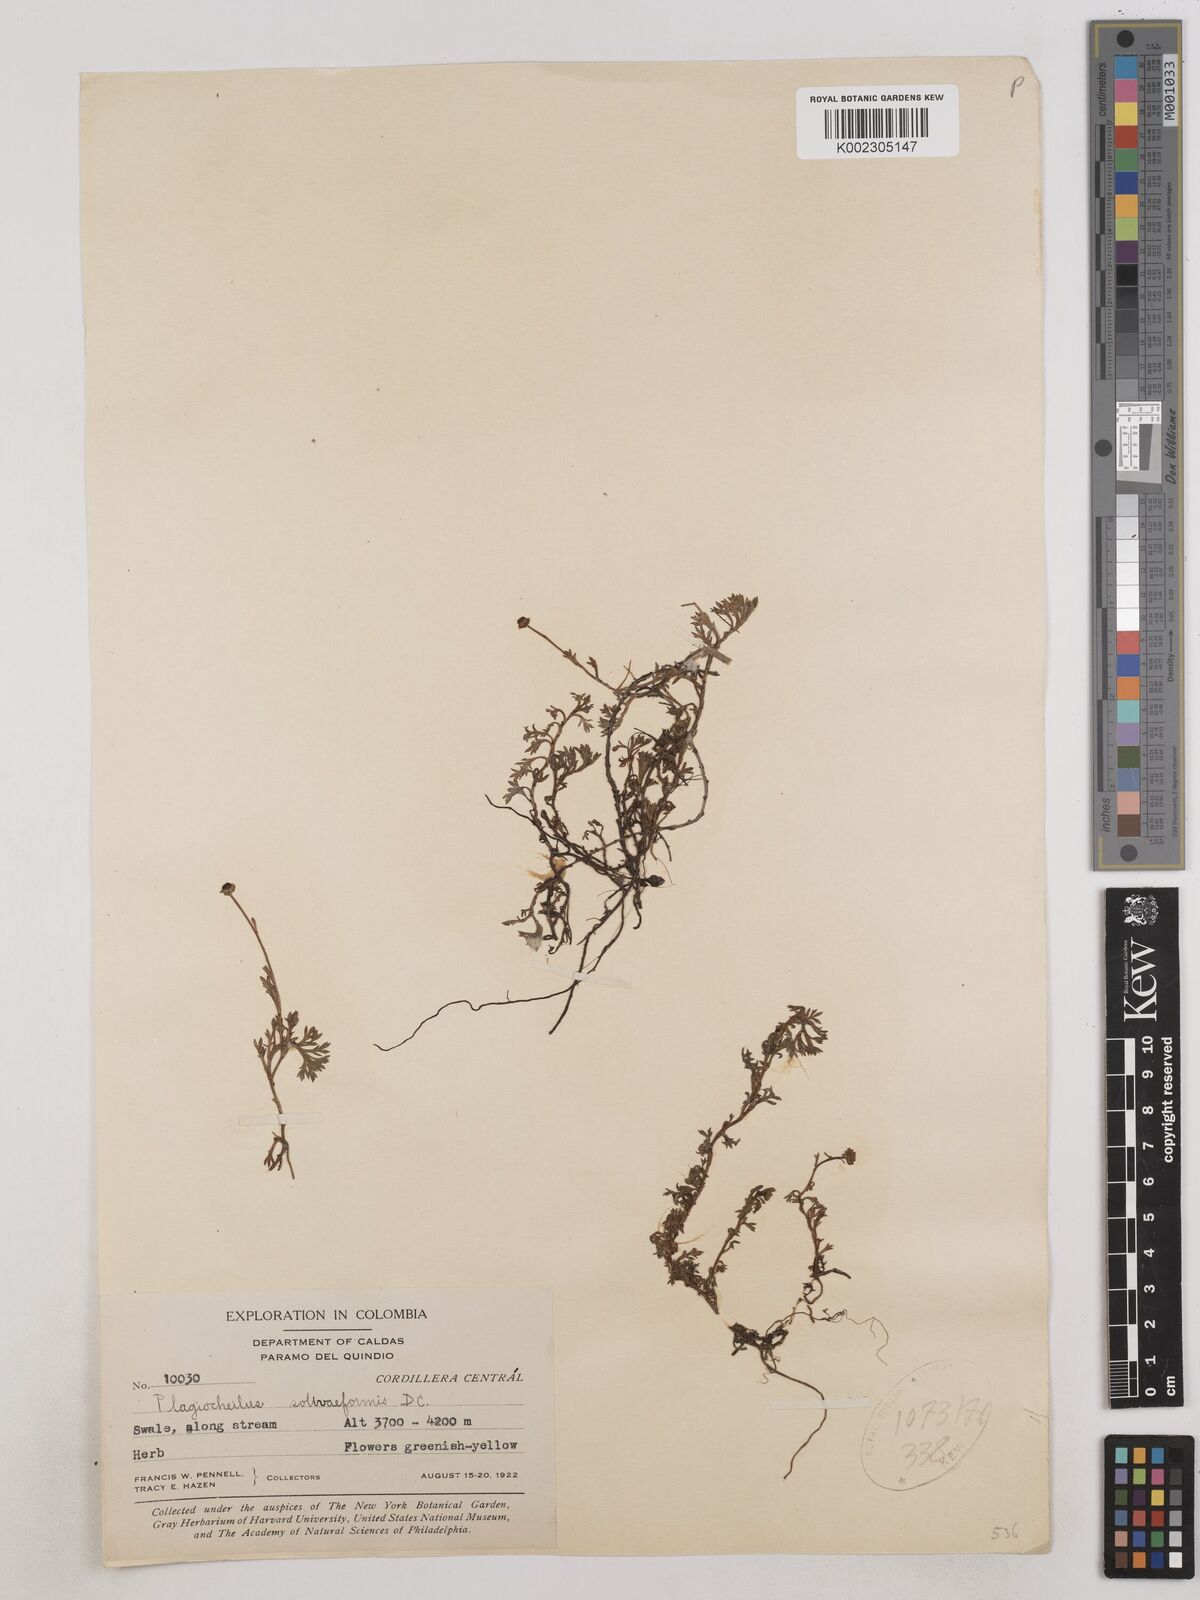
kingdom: Plantae
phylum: Tracheophyta
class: Magnoliopsida
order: Asterales
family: Asteraceae
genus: Plagiocheilus
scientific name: Plagiocheilus soliviformis
